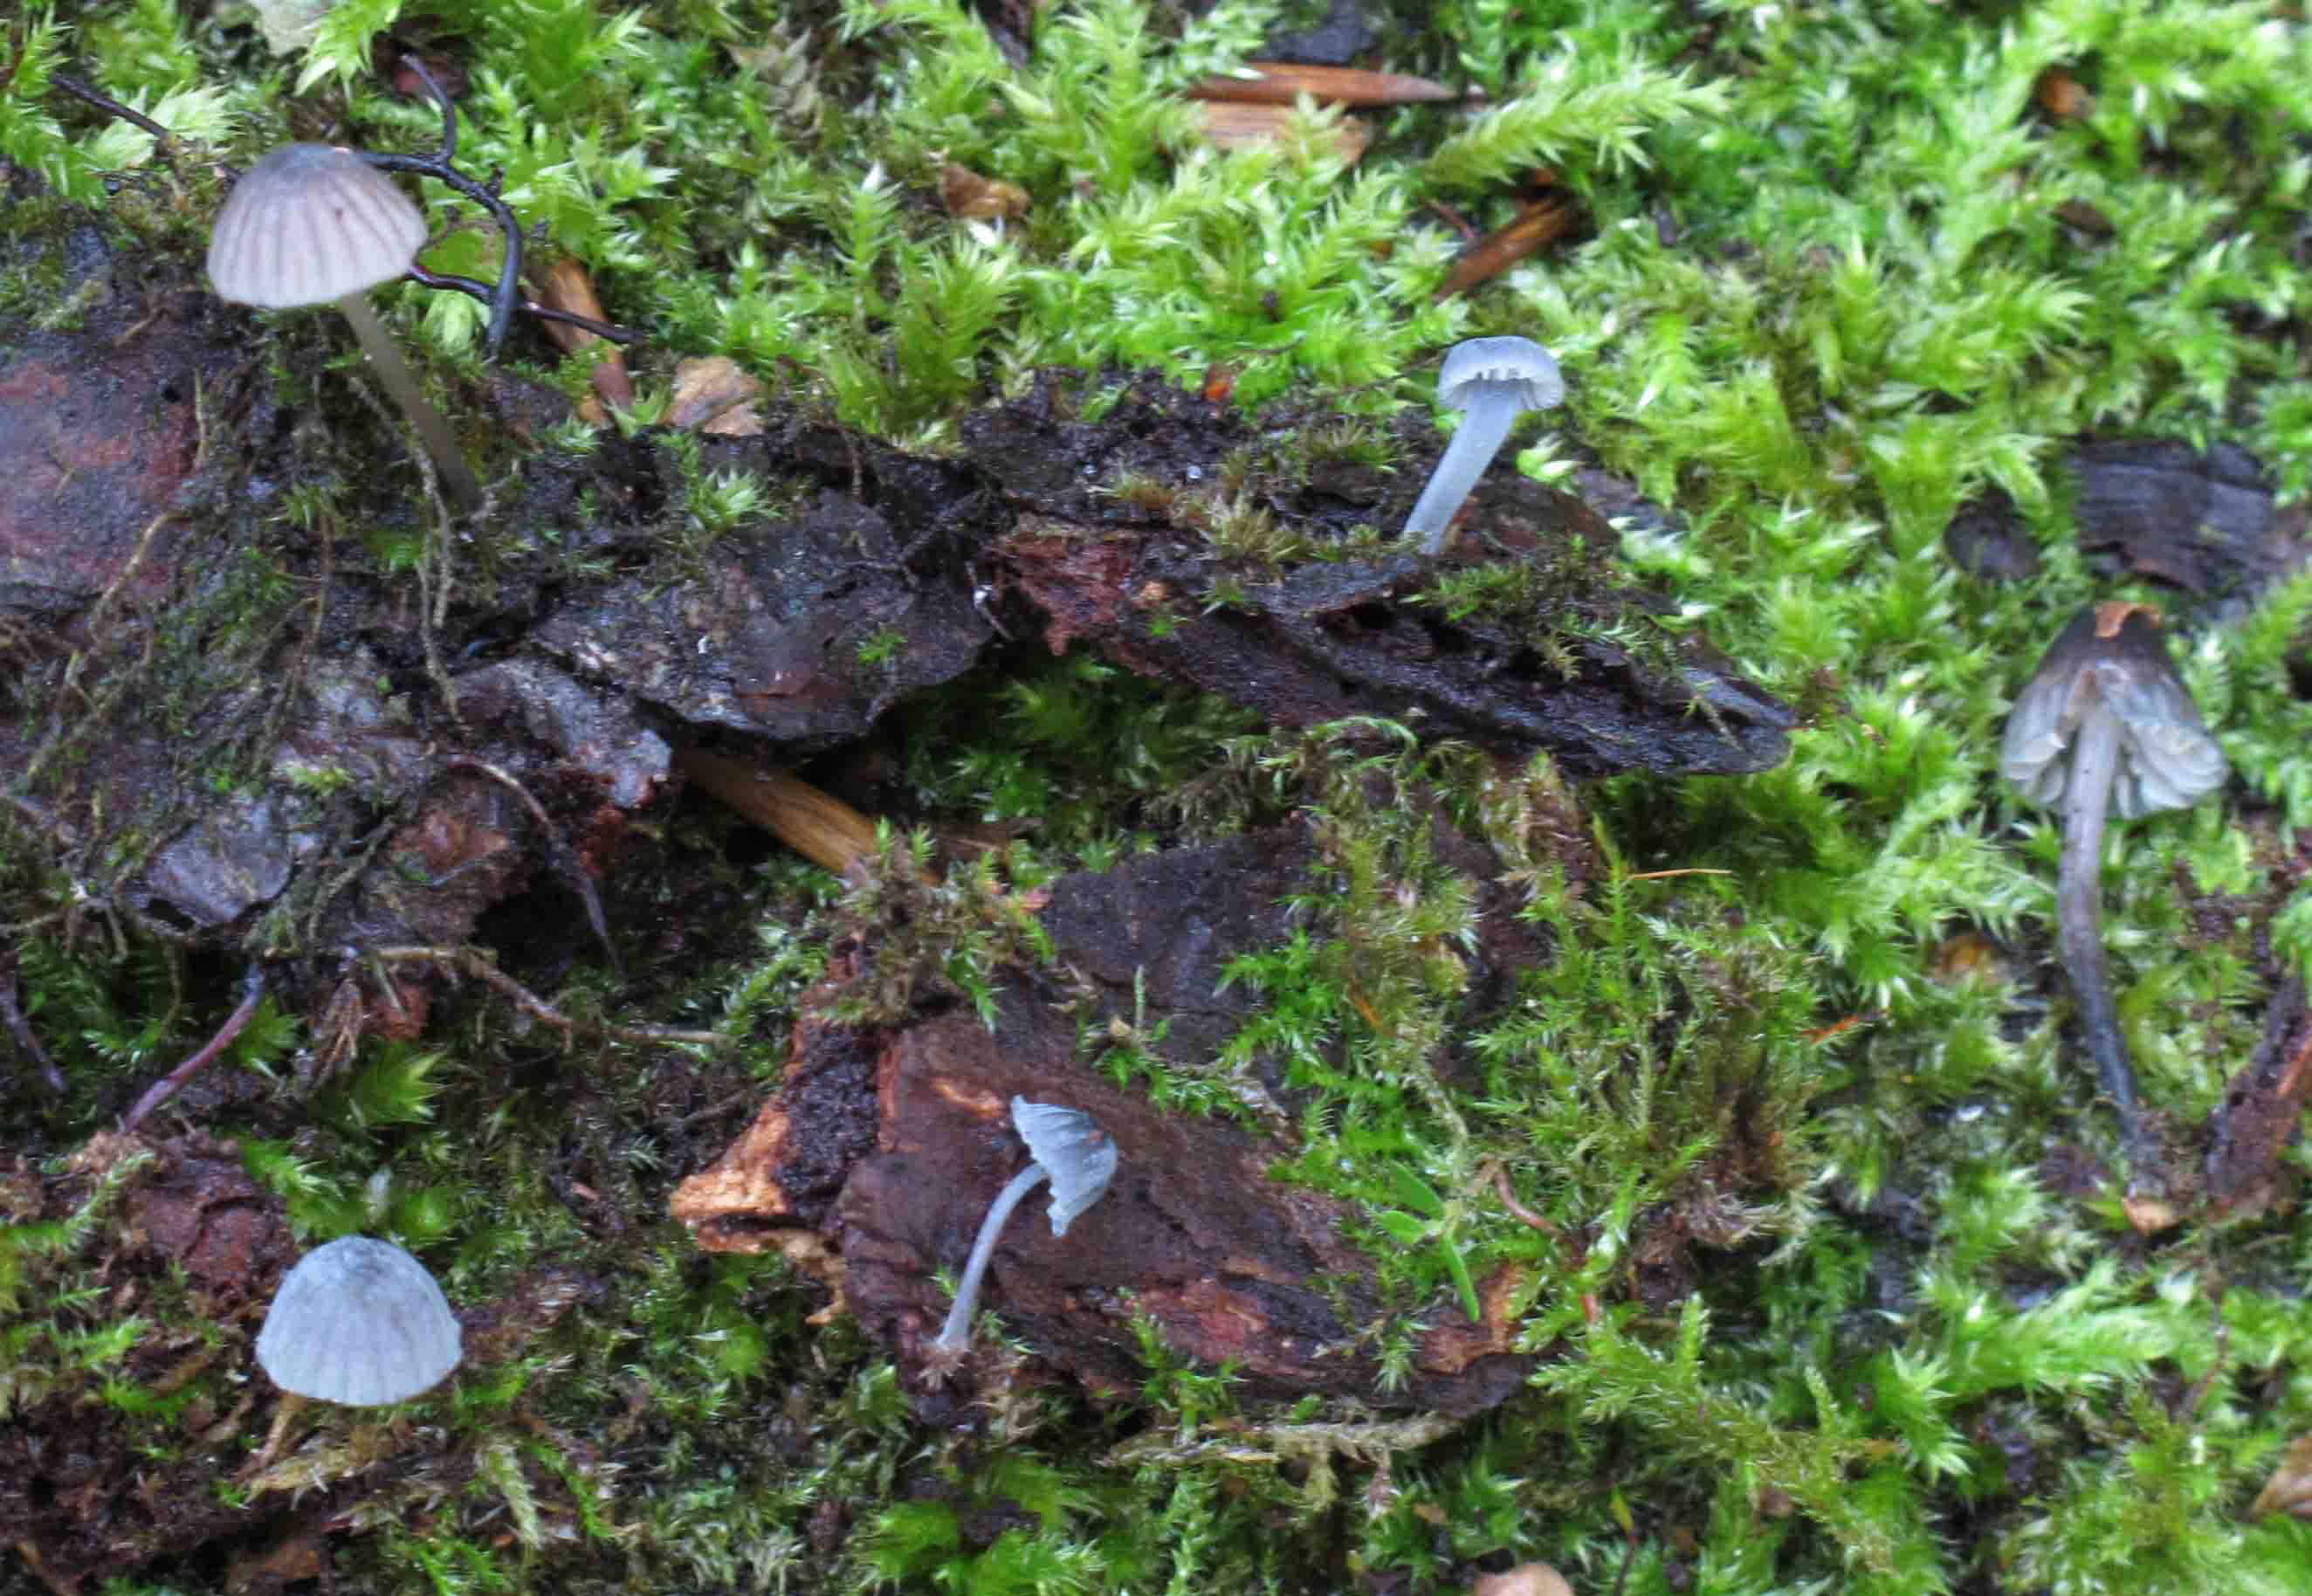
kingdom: Fungi
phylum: Basidiomycota
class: Agaricomycetes
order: Agaricales
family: Mycenaceae
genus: Mycena
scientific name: Mycena pseudocorticola
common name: gråblå bark-huesvamp
